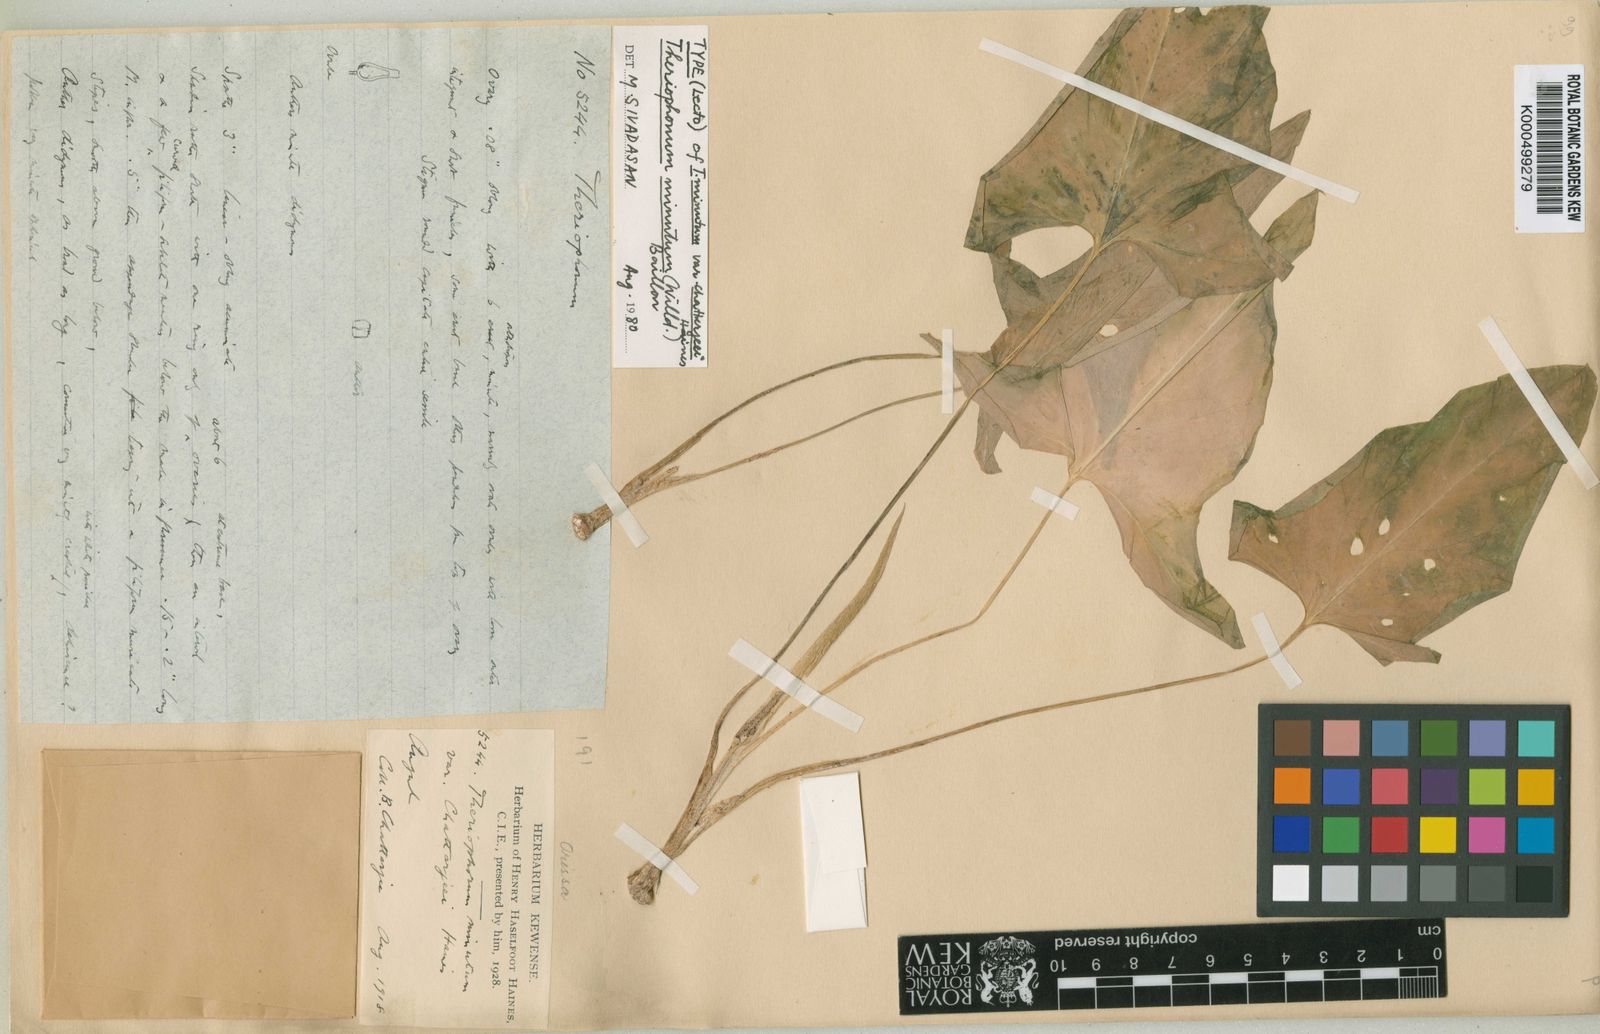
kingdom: Plantae
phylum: Tracheophyta
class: Liliopsida
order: Alismatales
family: Araceae
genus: Theriophonum
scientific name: Theriophonum minutum
